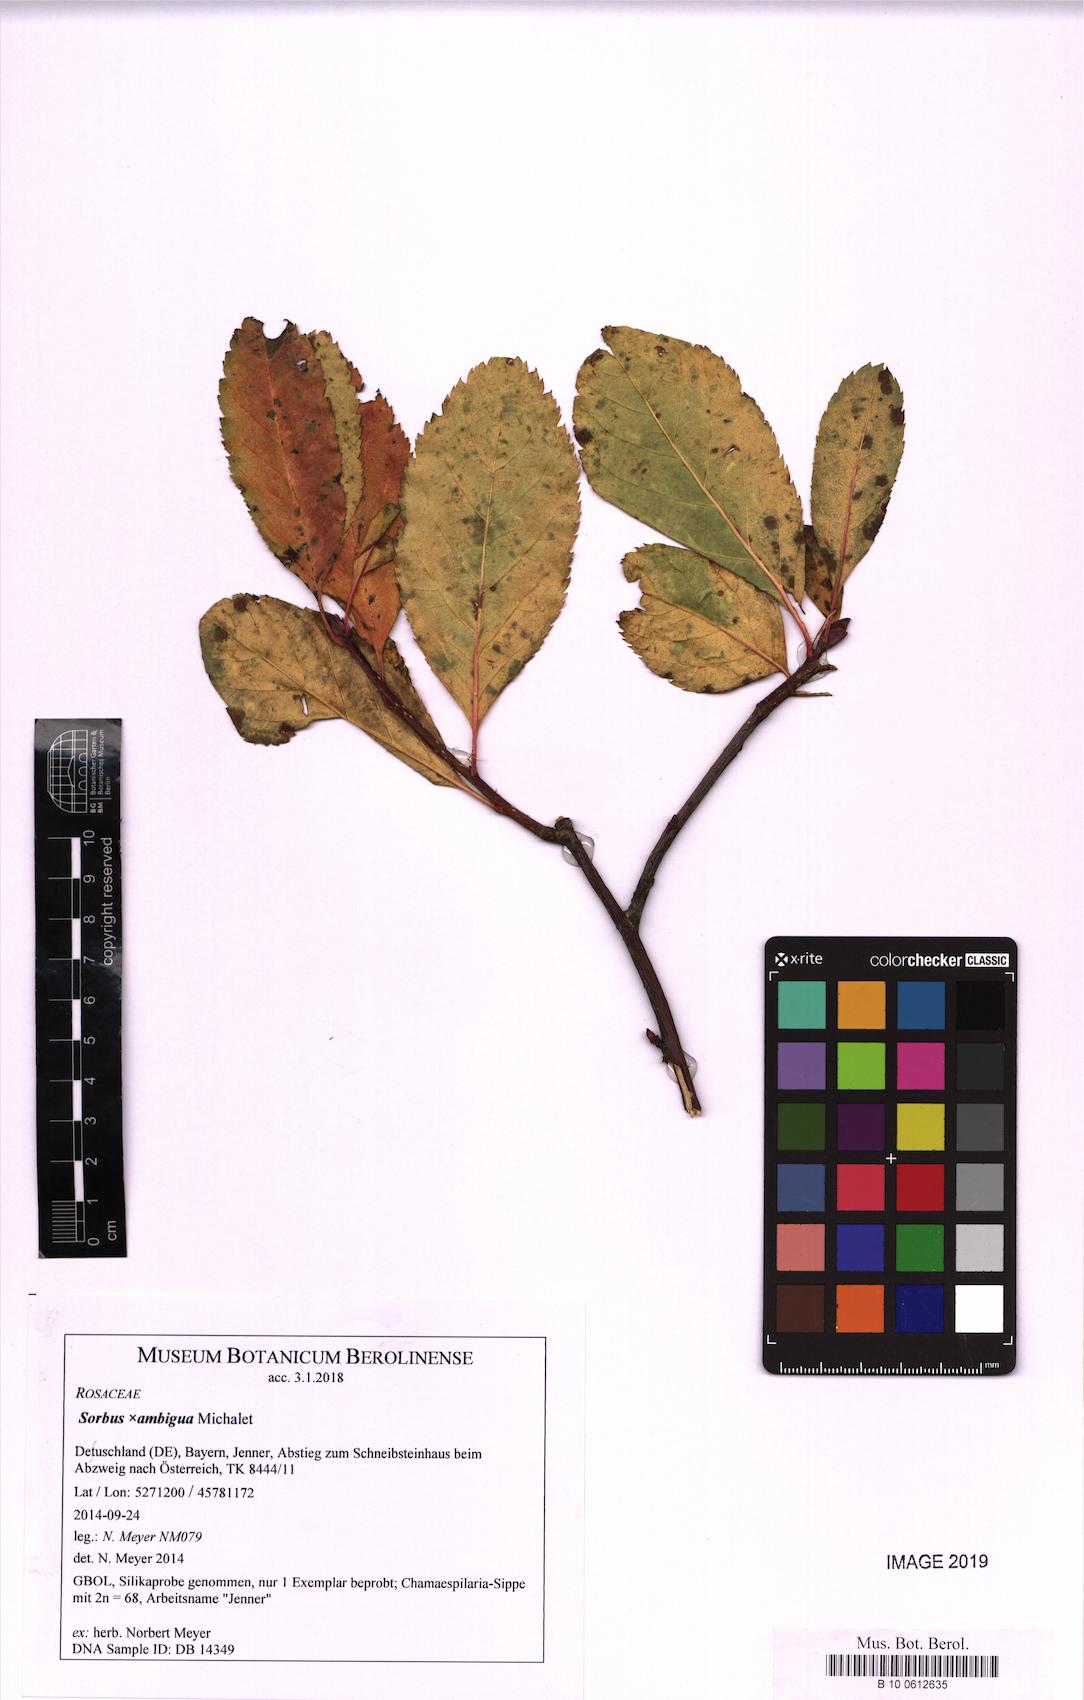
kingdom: Plantae
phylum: Tracheophyta
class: Magnoliopsida
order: Rosales
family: Rosaceae
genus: Majovskya
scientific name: Majovskya ambigua
